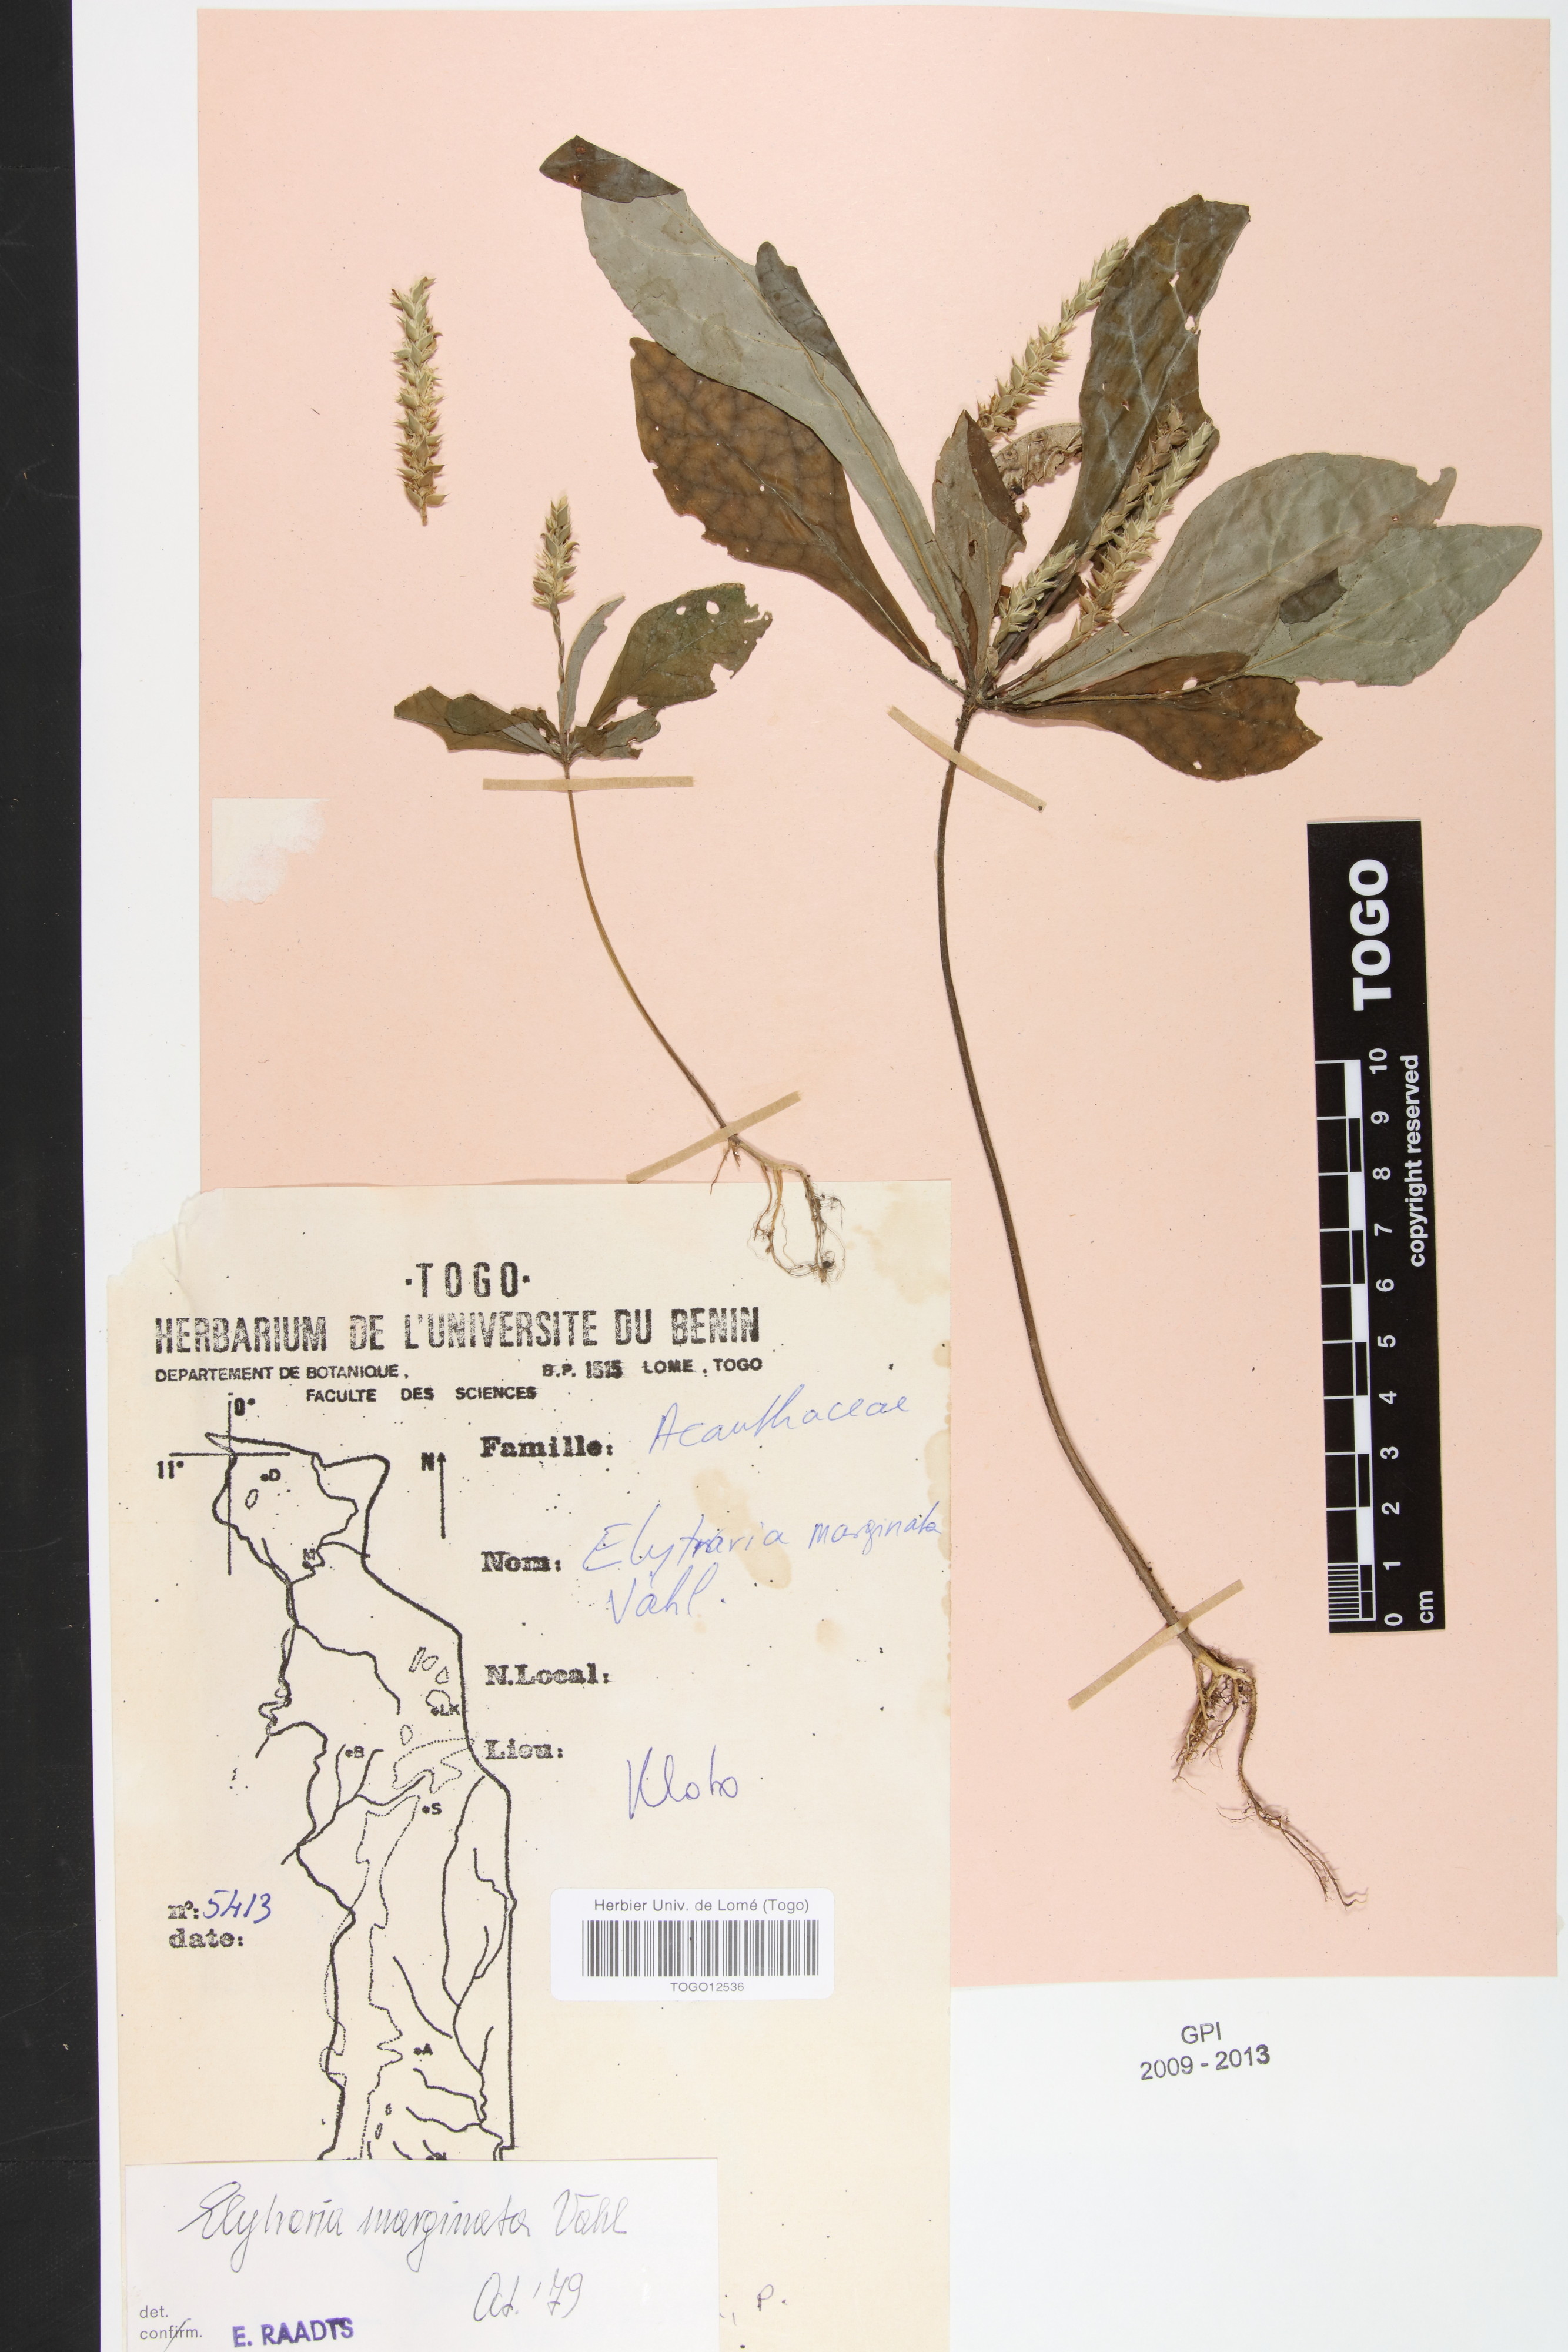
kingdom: Plantae
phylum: Tracheophyta
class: Magnoliopsida
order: Lamiales
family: Acanthaceae
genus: Elytraria
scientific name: Elytraria marginata
